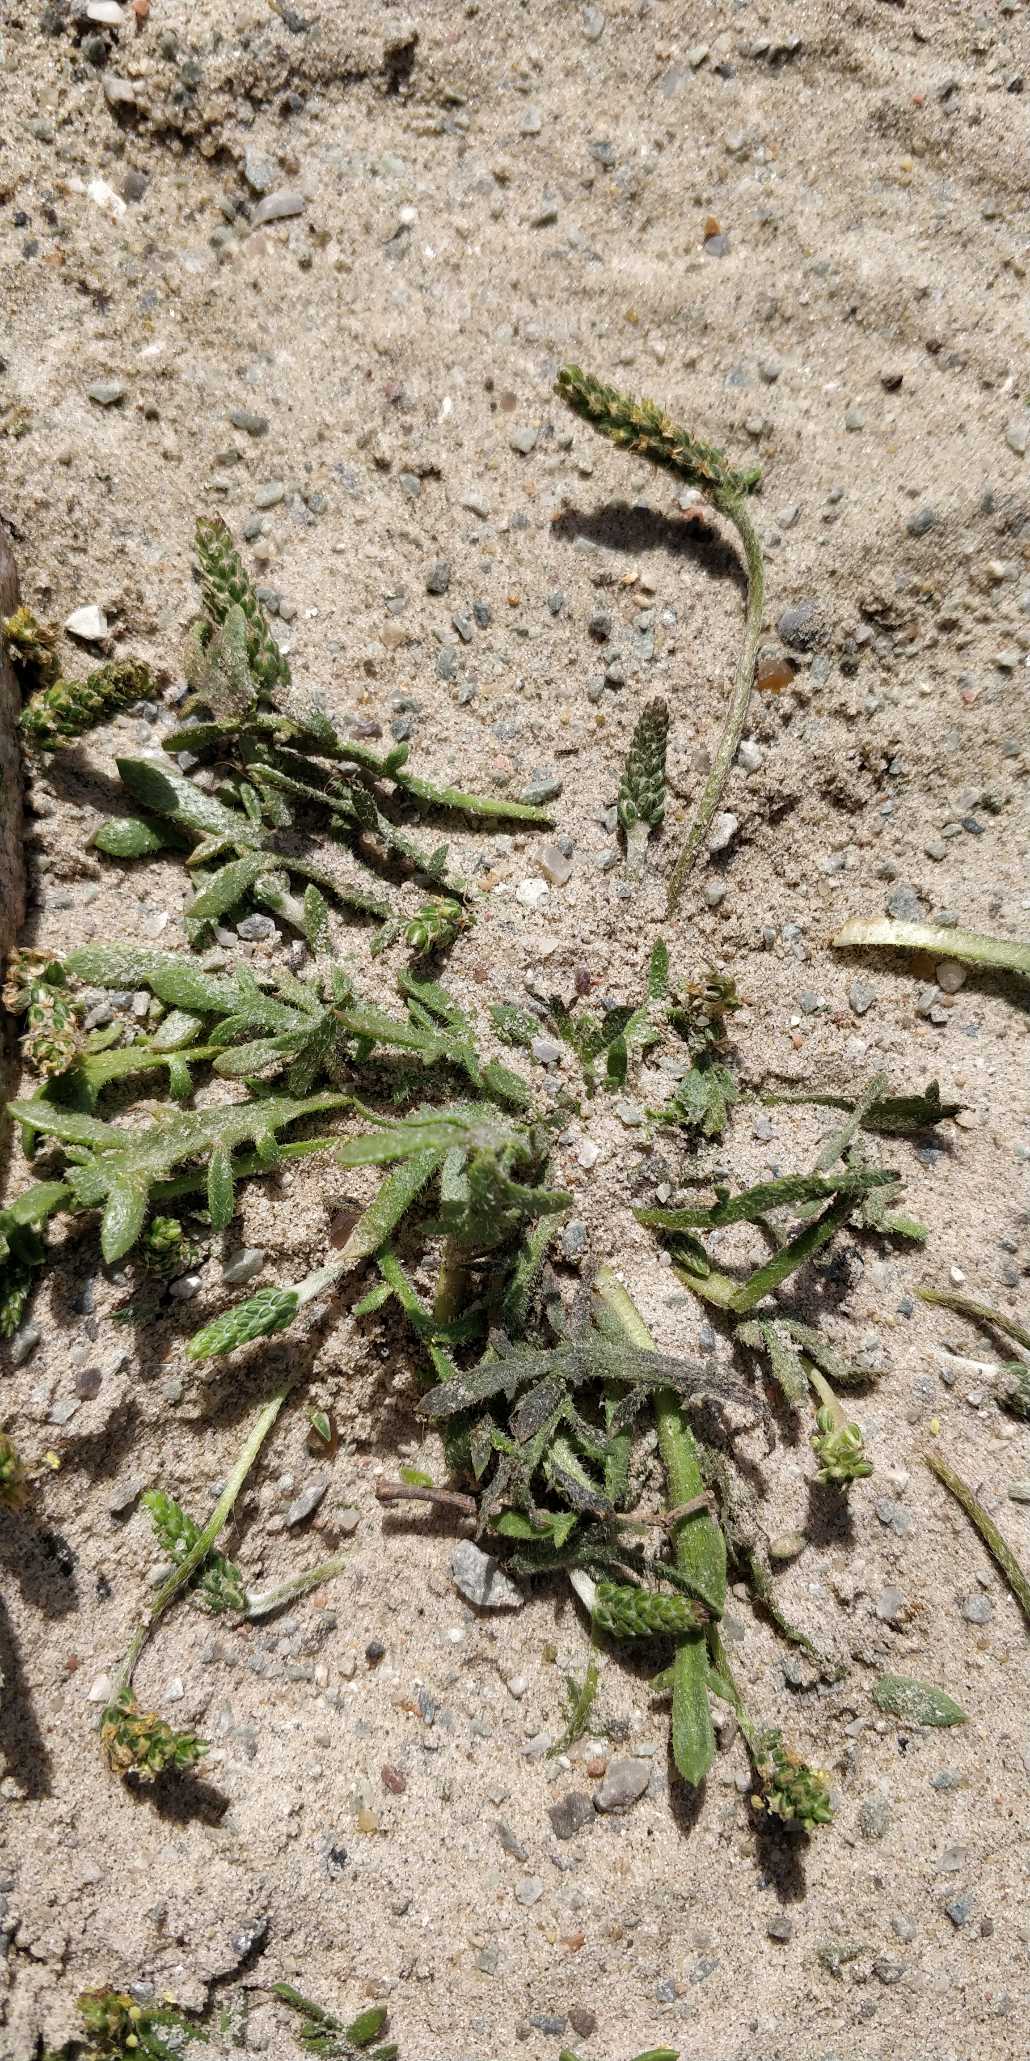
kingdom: Plantae
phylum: Tracheophyta
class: Magnoliopsida
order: Lamiales
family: Plantaginaceae
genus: Plantago
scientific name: Plantago coronopus
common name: Fliget vejbred
